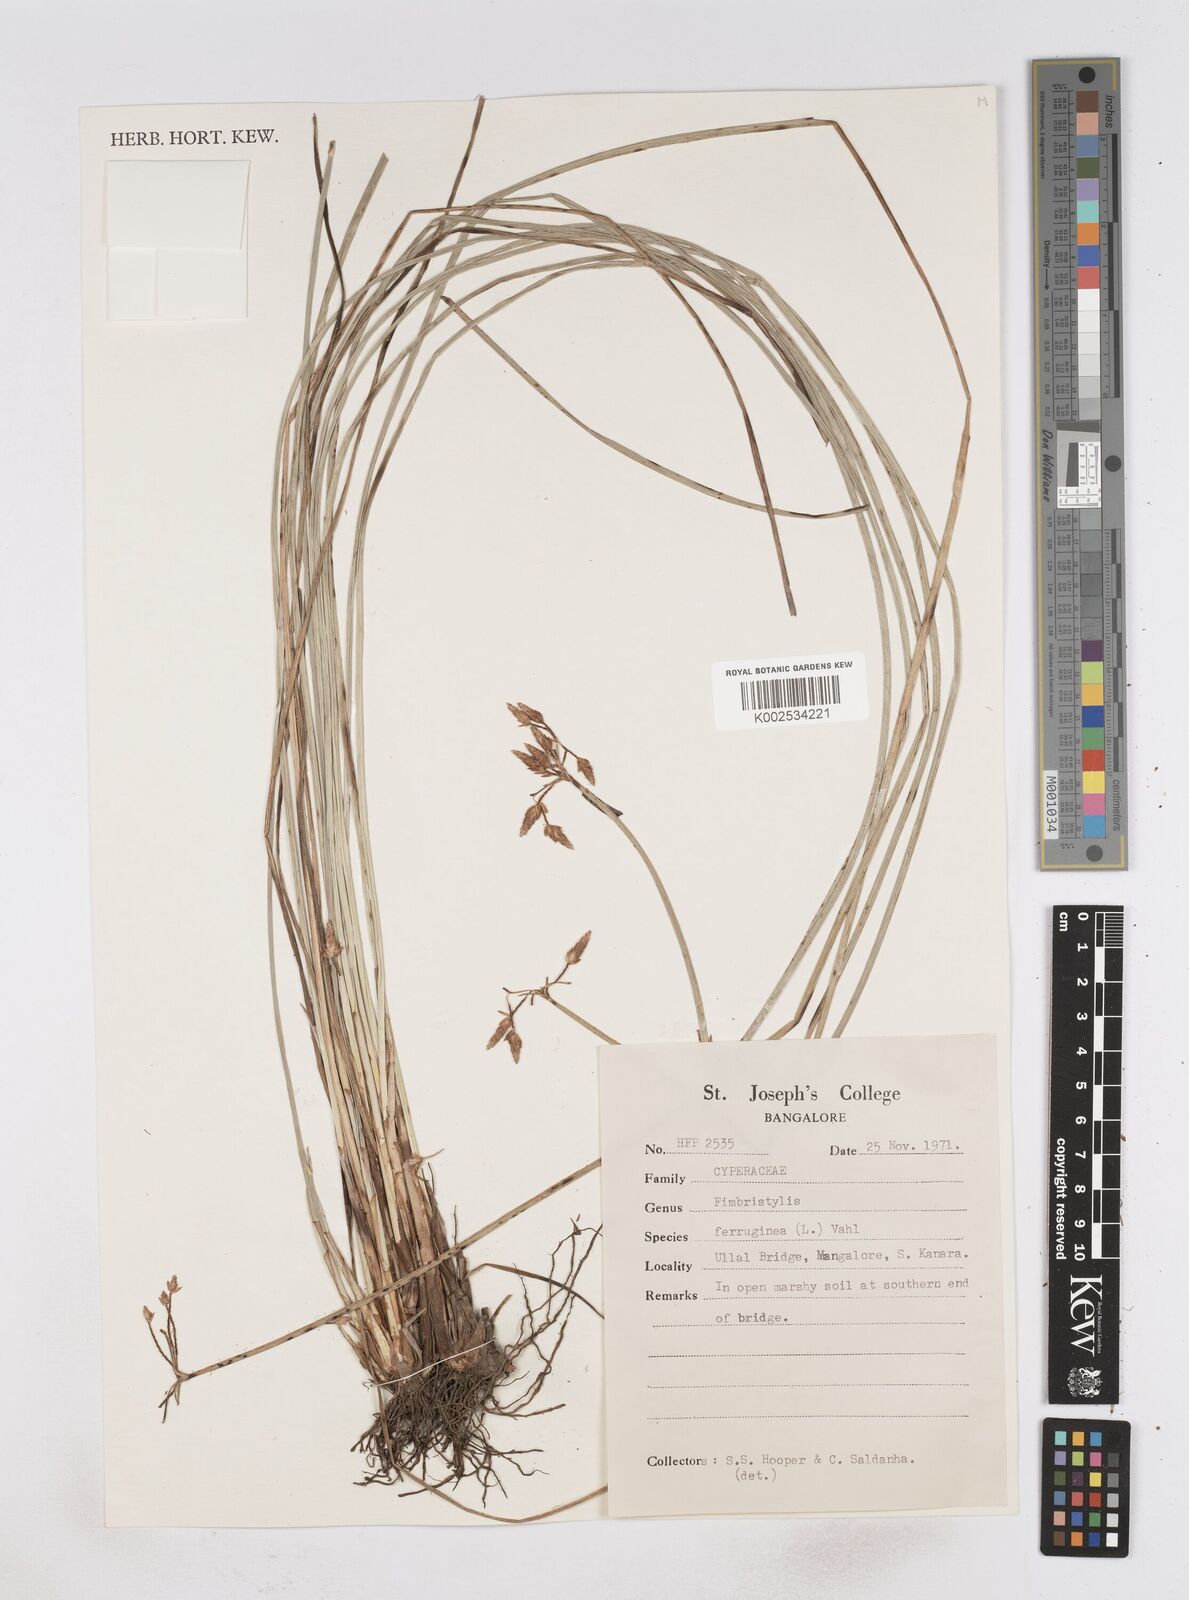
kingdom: Plantae
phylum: Tracheophyta
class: Liliopsida
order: Poales
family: Cyperaceae
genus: Fimbristylis
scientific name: Fimbristylis ferruginea
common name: West indian fimbry
